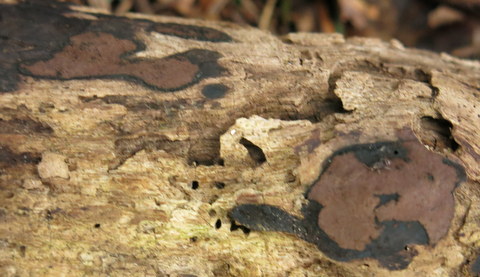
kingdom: Fungi
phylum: Ascomycota
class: Sordariomycetes
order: Xylariales
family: Hypoxylaceae
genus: Hypoxylon
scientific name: Hypoxylon petriniae
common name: nedsænket kulbær
